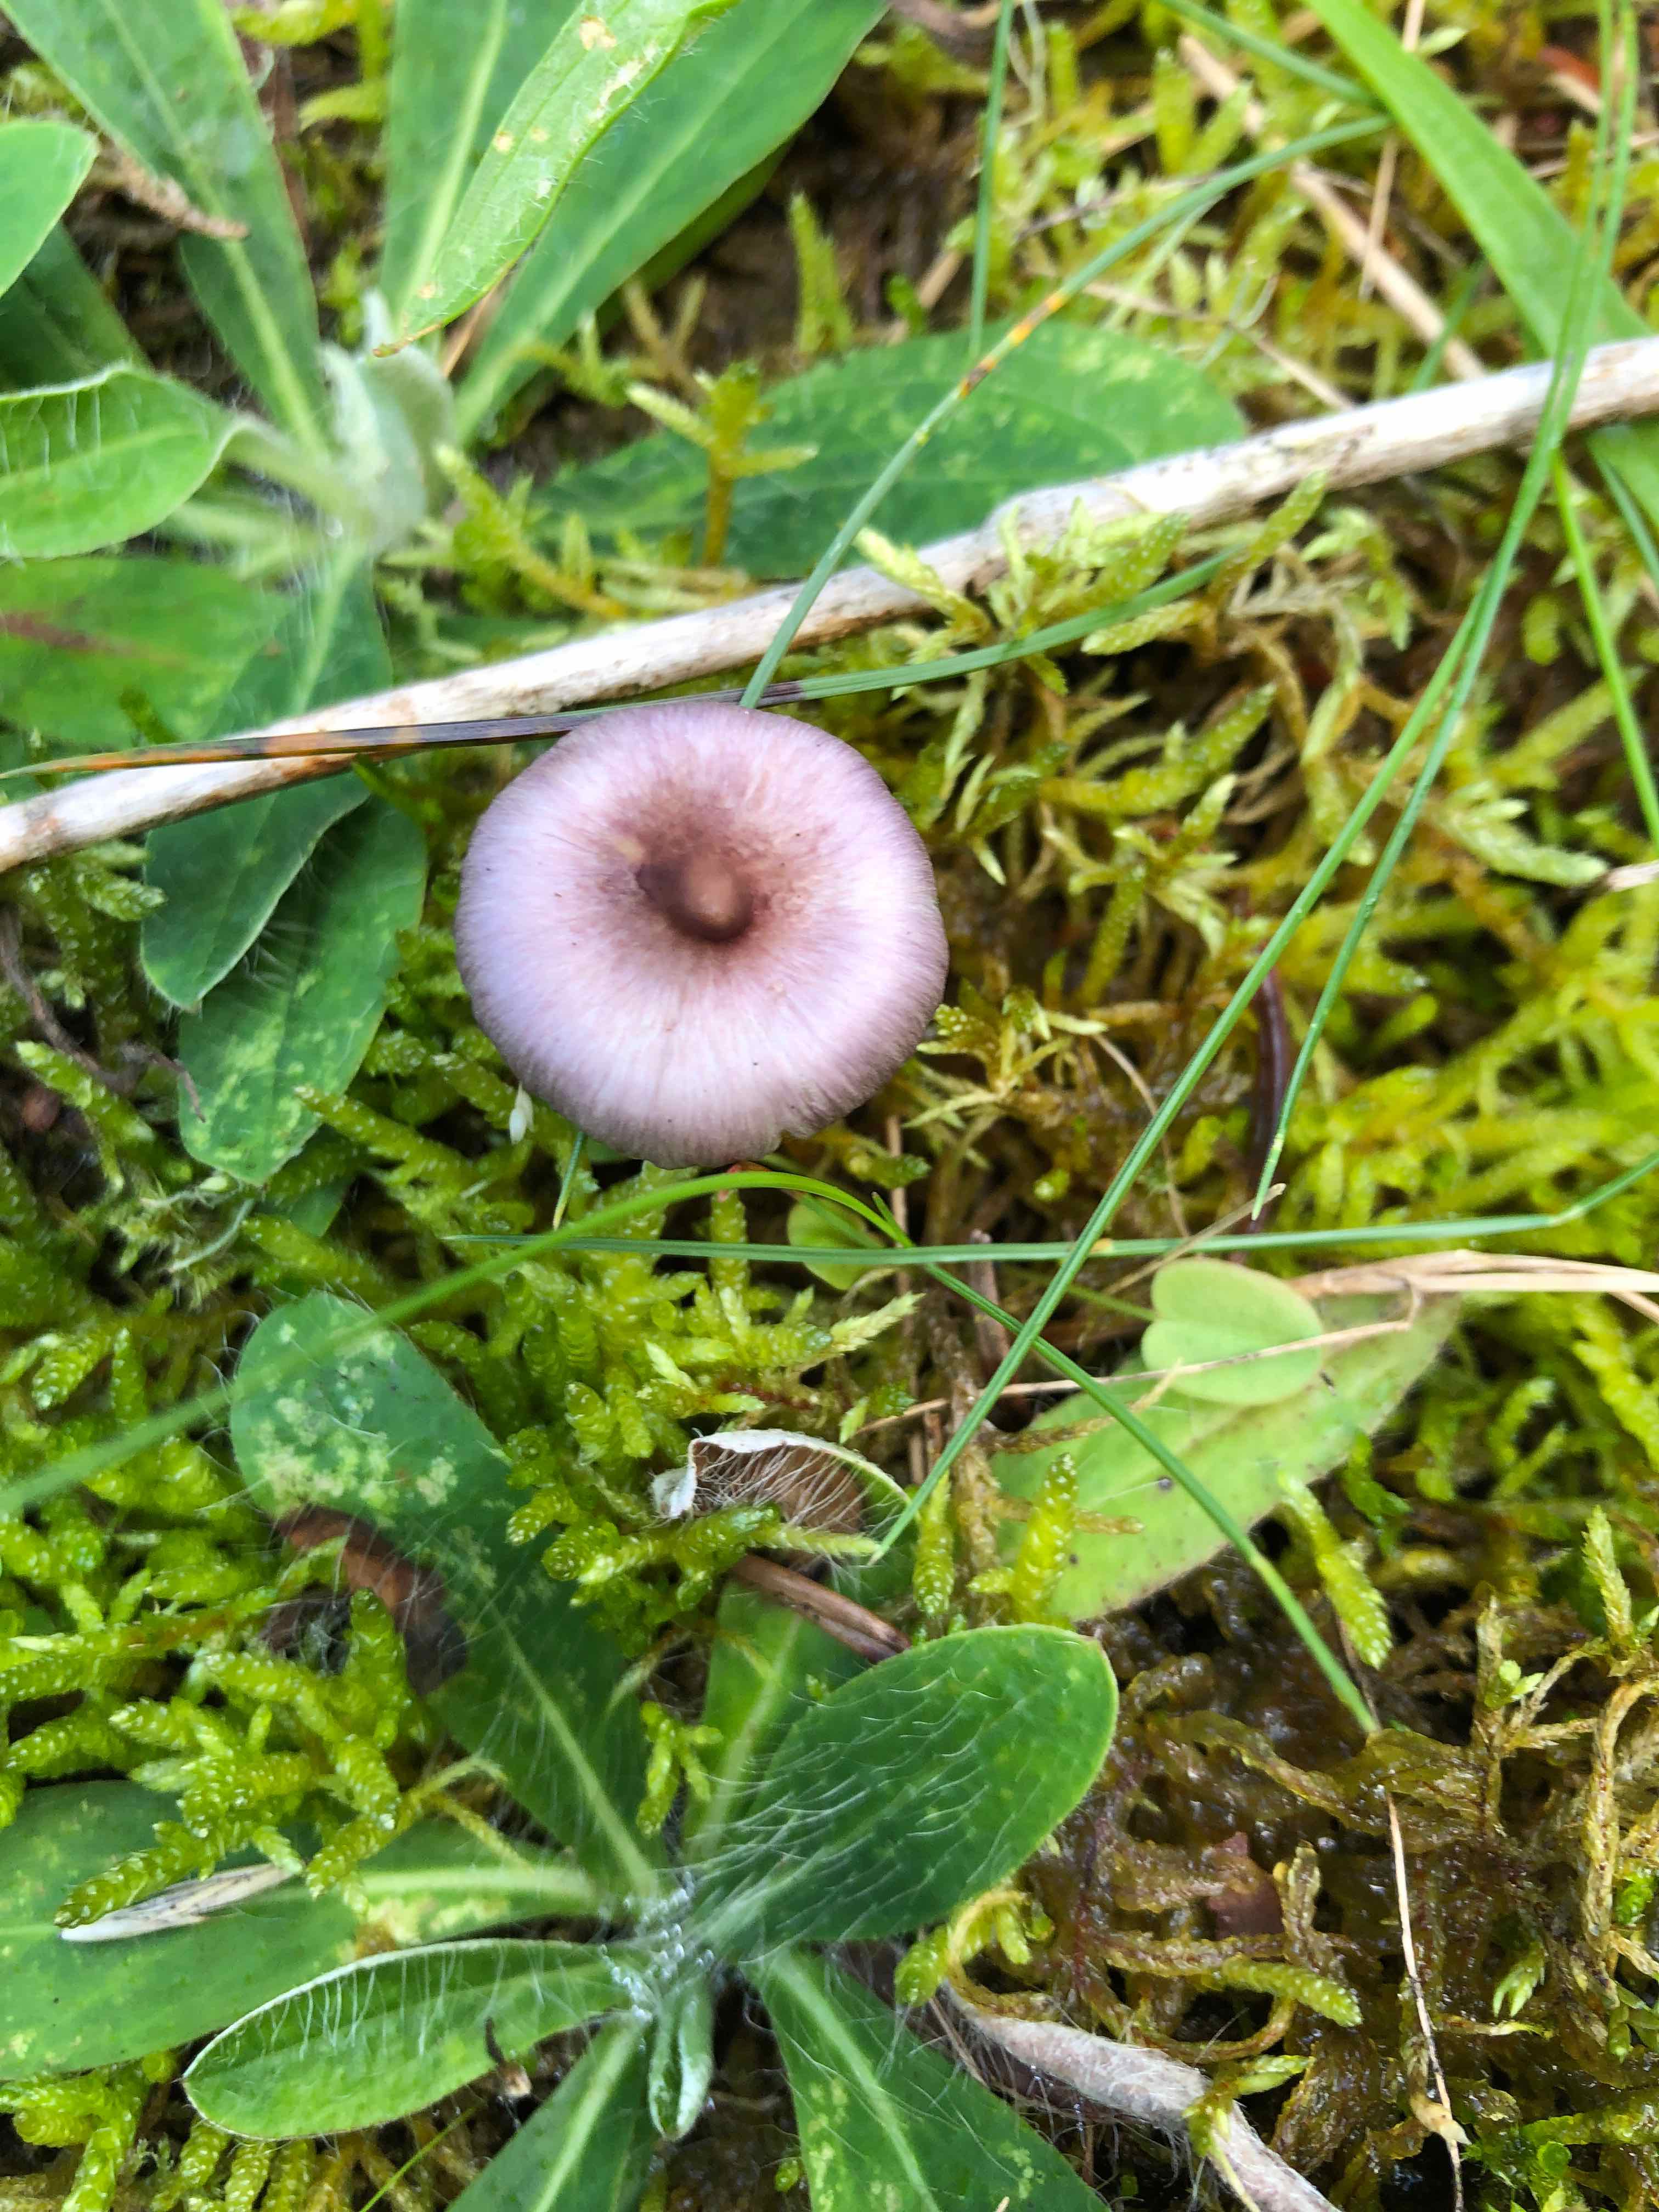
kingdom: Fungi
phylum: Basidiomycota
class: Agaricomycetes
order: Agaricales
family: Inocybaceae
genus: Inocybe
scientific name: Inocybe geophylla
